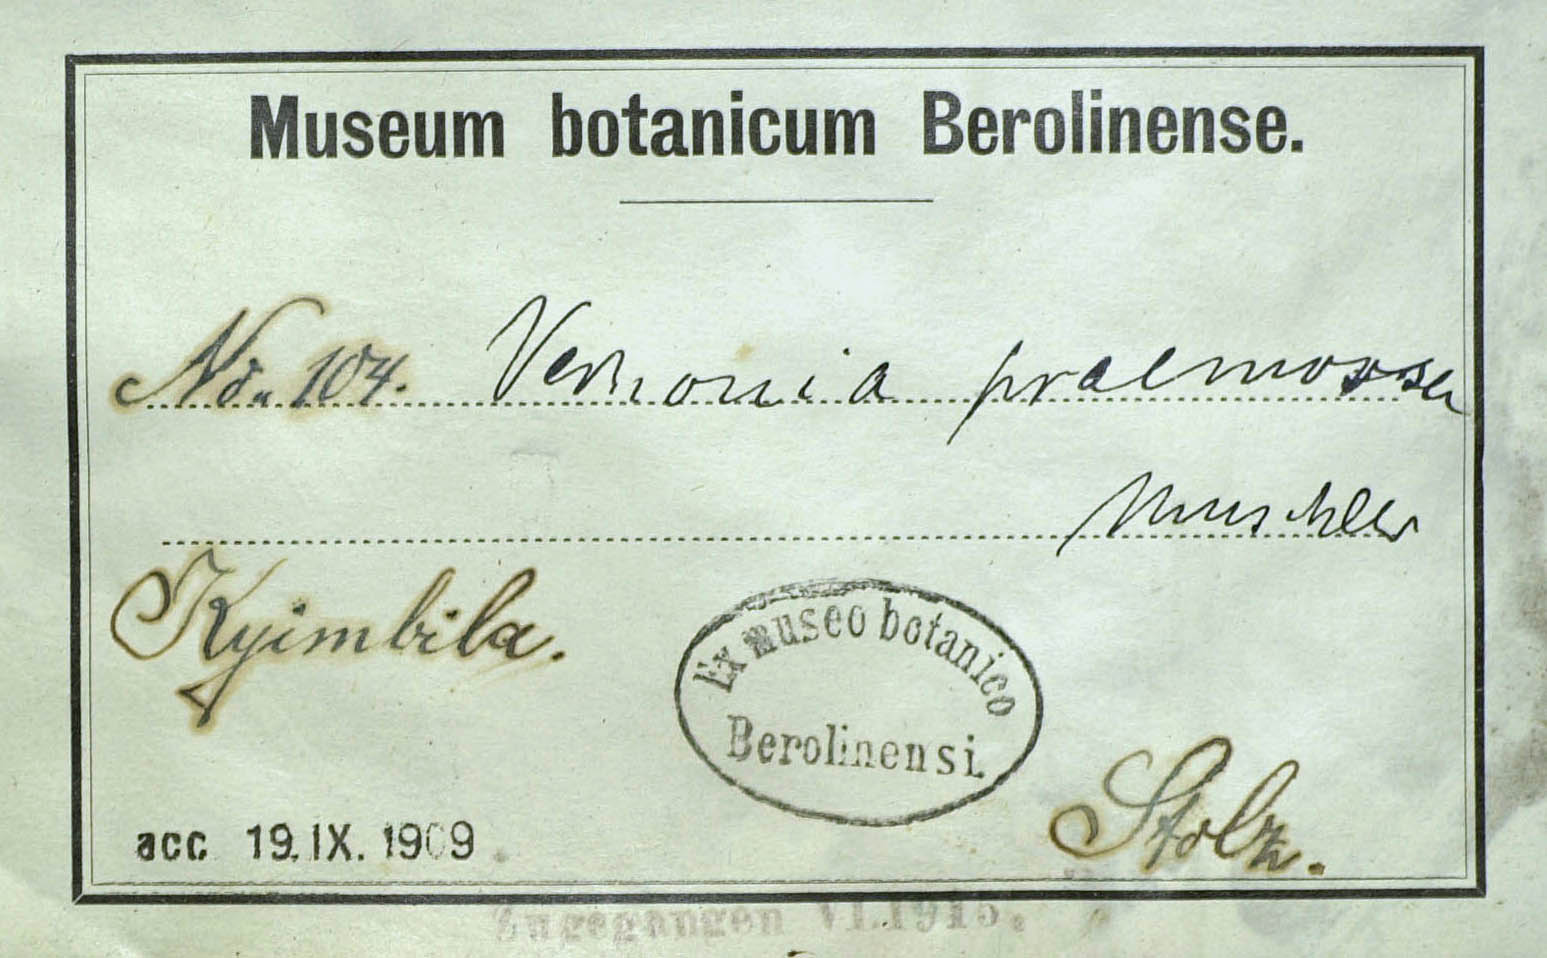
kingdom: Plantae
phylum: Tracheophyta
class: Magnoliopsida
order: Asterales
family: Asteraceae
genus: Vernonella
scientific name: Vernonella praemorsa
